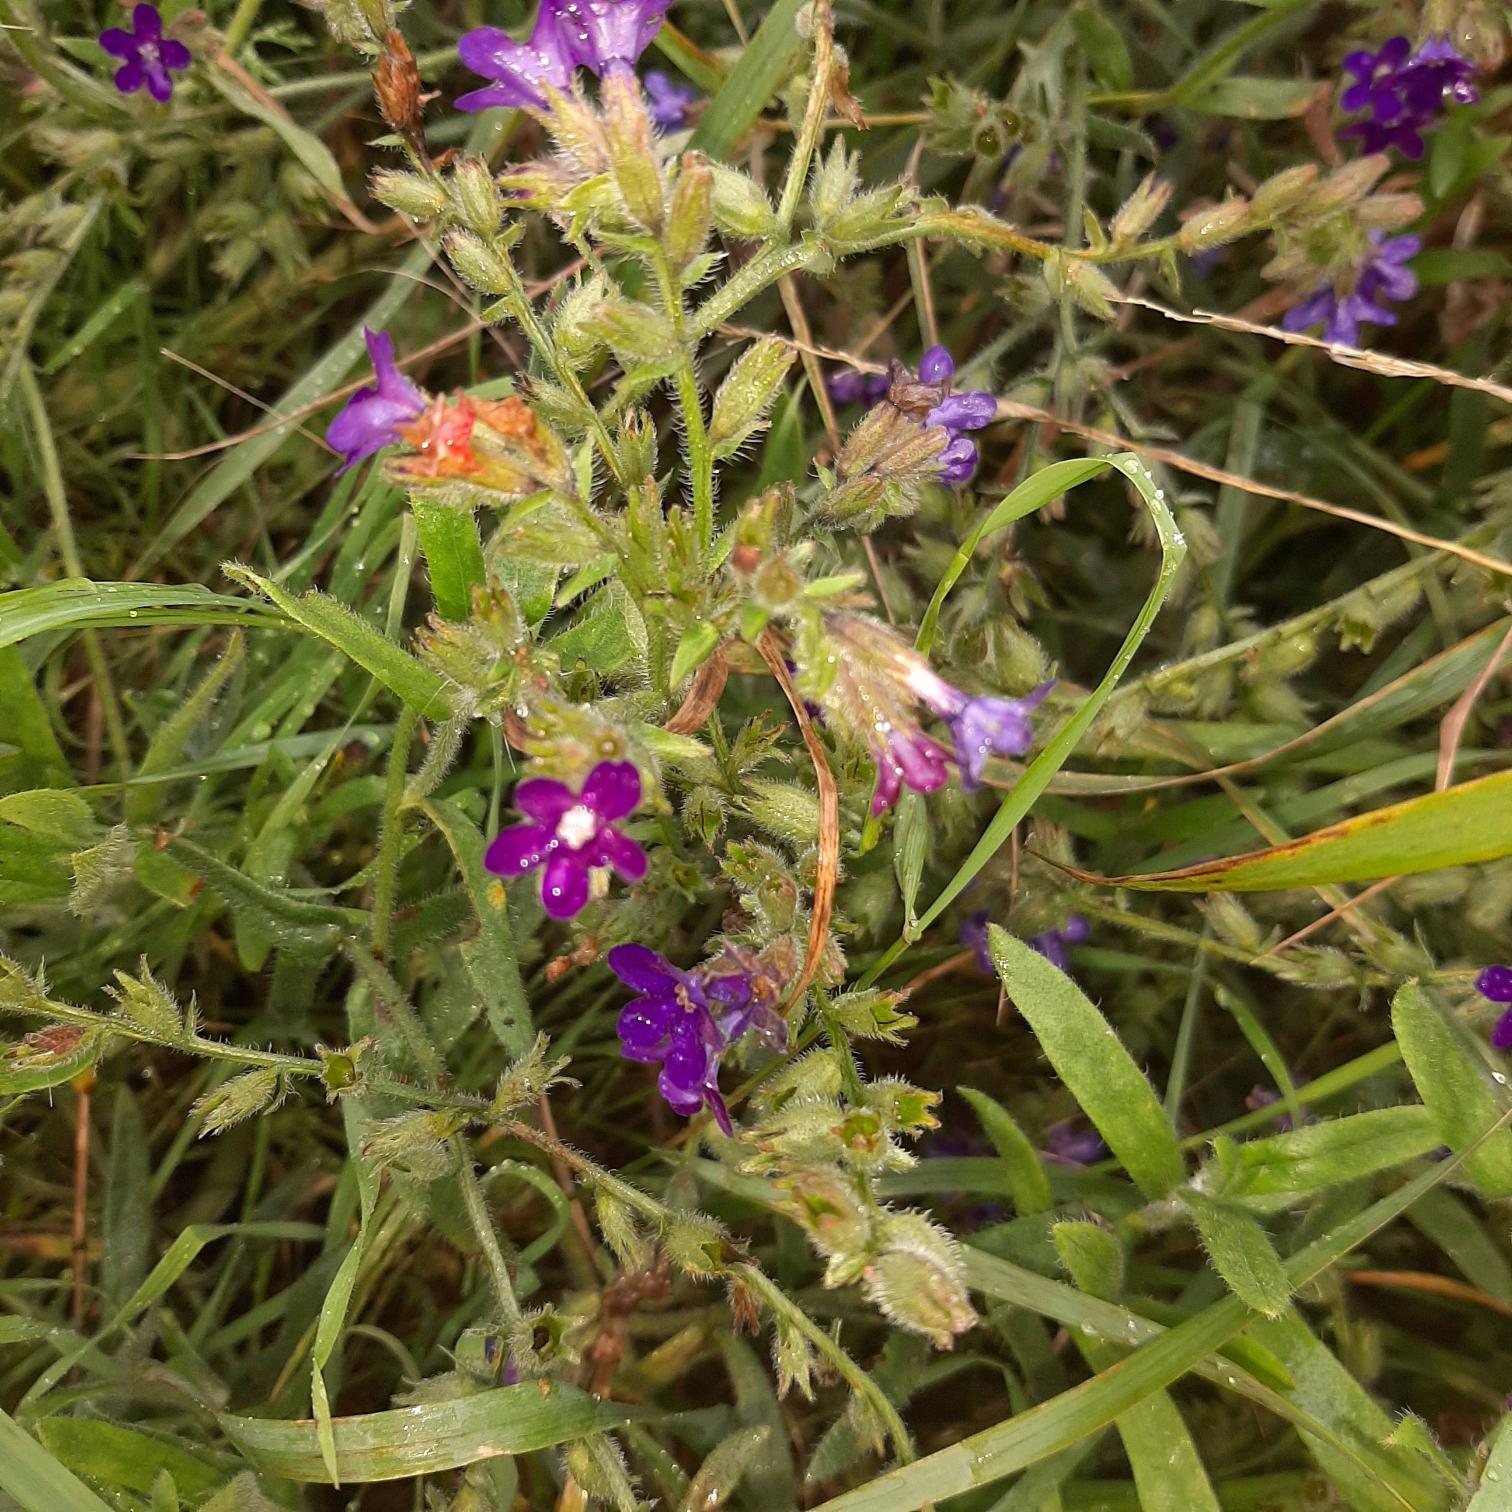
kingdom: Plantae
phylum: Tracheophyta
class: Magnoliopsida
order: Boraginales
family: Boraginaceae
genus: Anchusa
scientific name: Anchusa officinalis
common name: Læge-oksetunge
